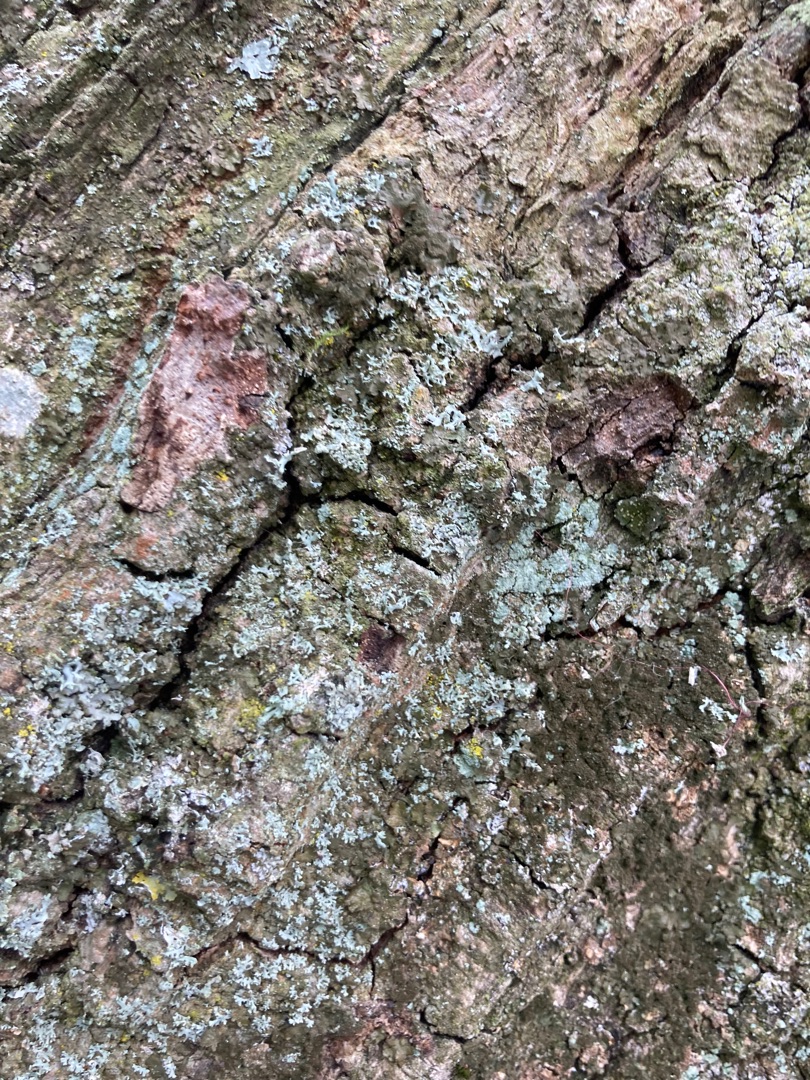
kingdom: Fungi
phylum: Ascomycota
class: Lecanoromycetes
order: Caliciales
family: Physciaceae
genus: Physcia
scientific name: Physcia tenella
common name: Spæd rosetlav
